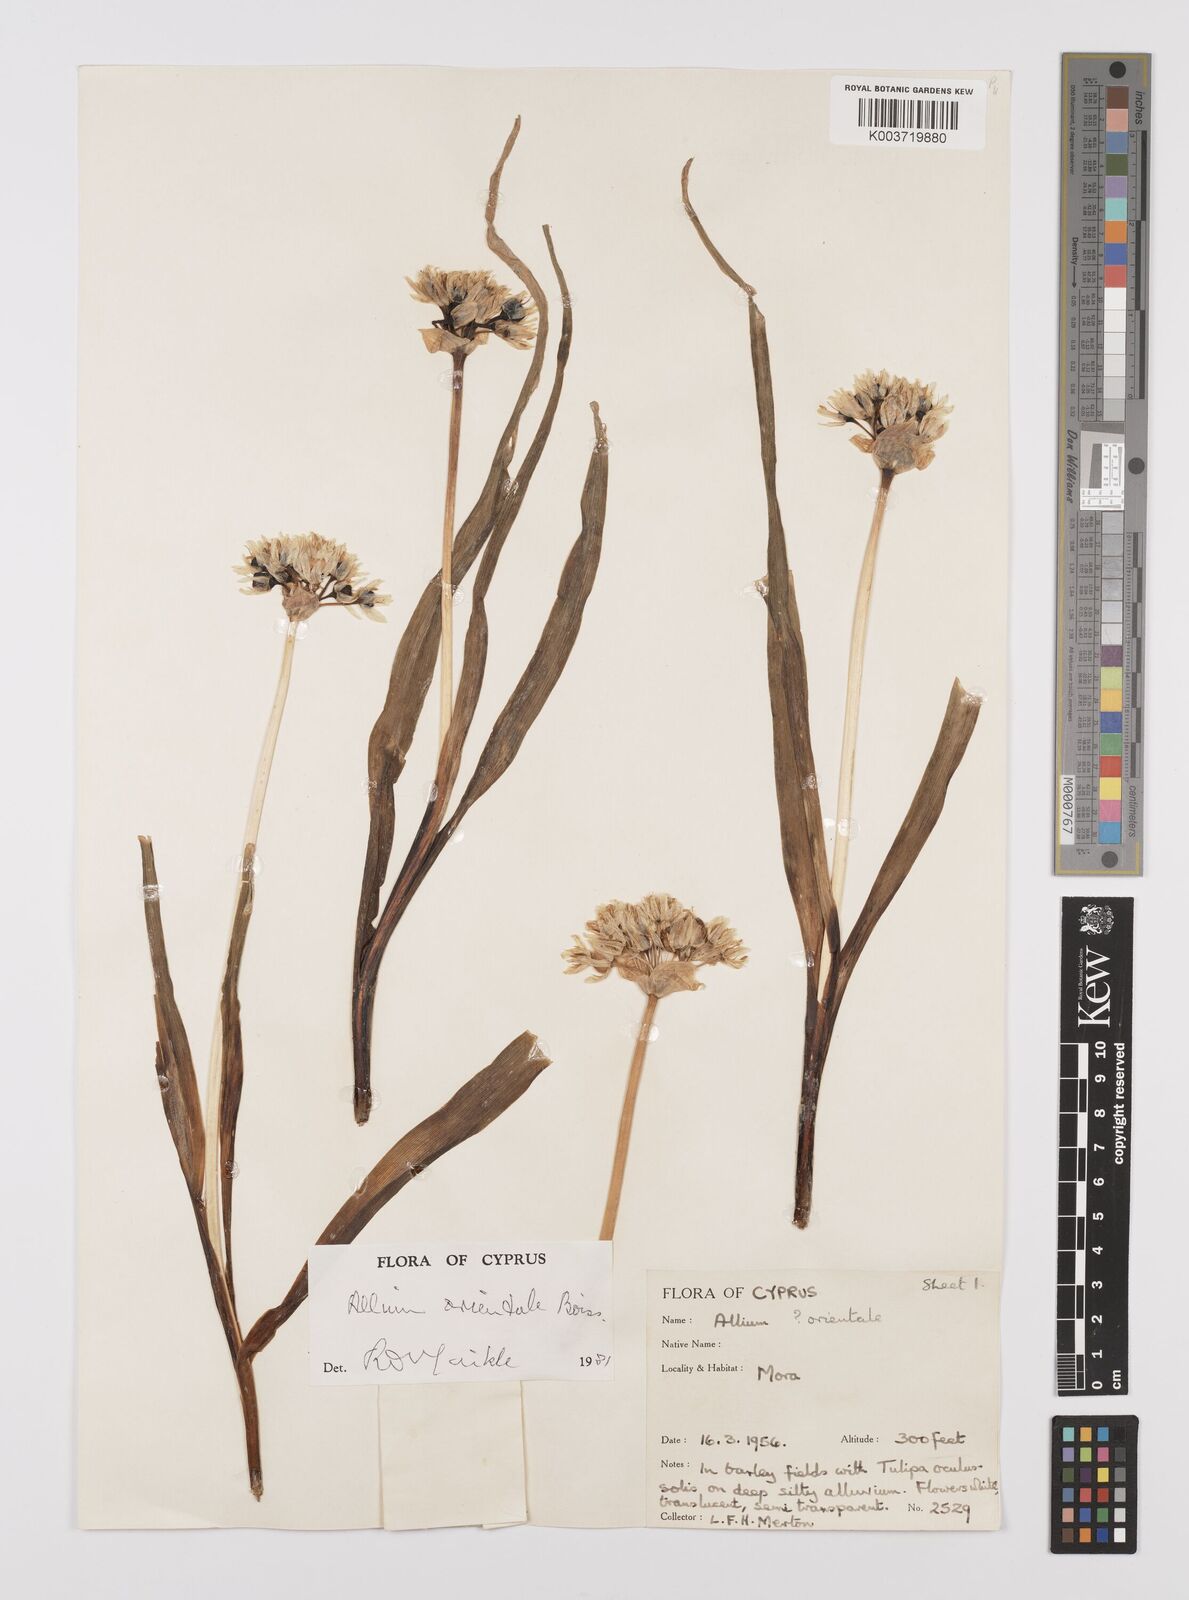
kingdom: Plantae
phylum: Tracheophyta
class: Liliopsida
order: Asparagales
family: Amaryllidaceae
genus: Allium
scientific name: Allium orientale
